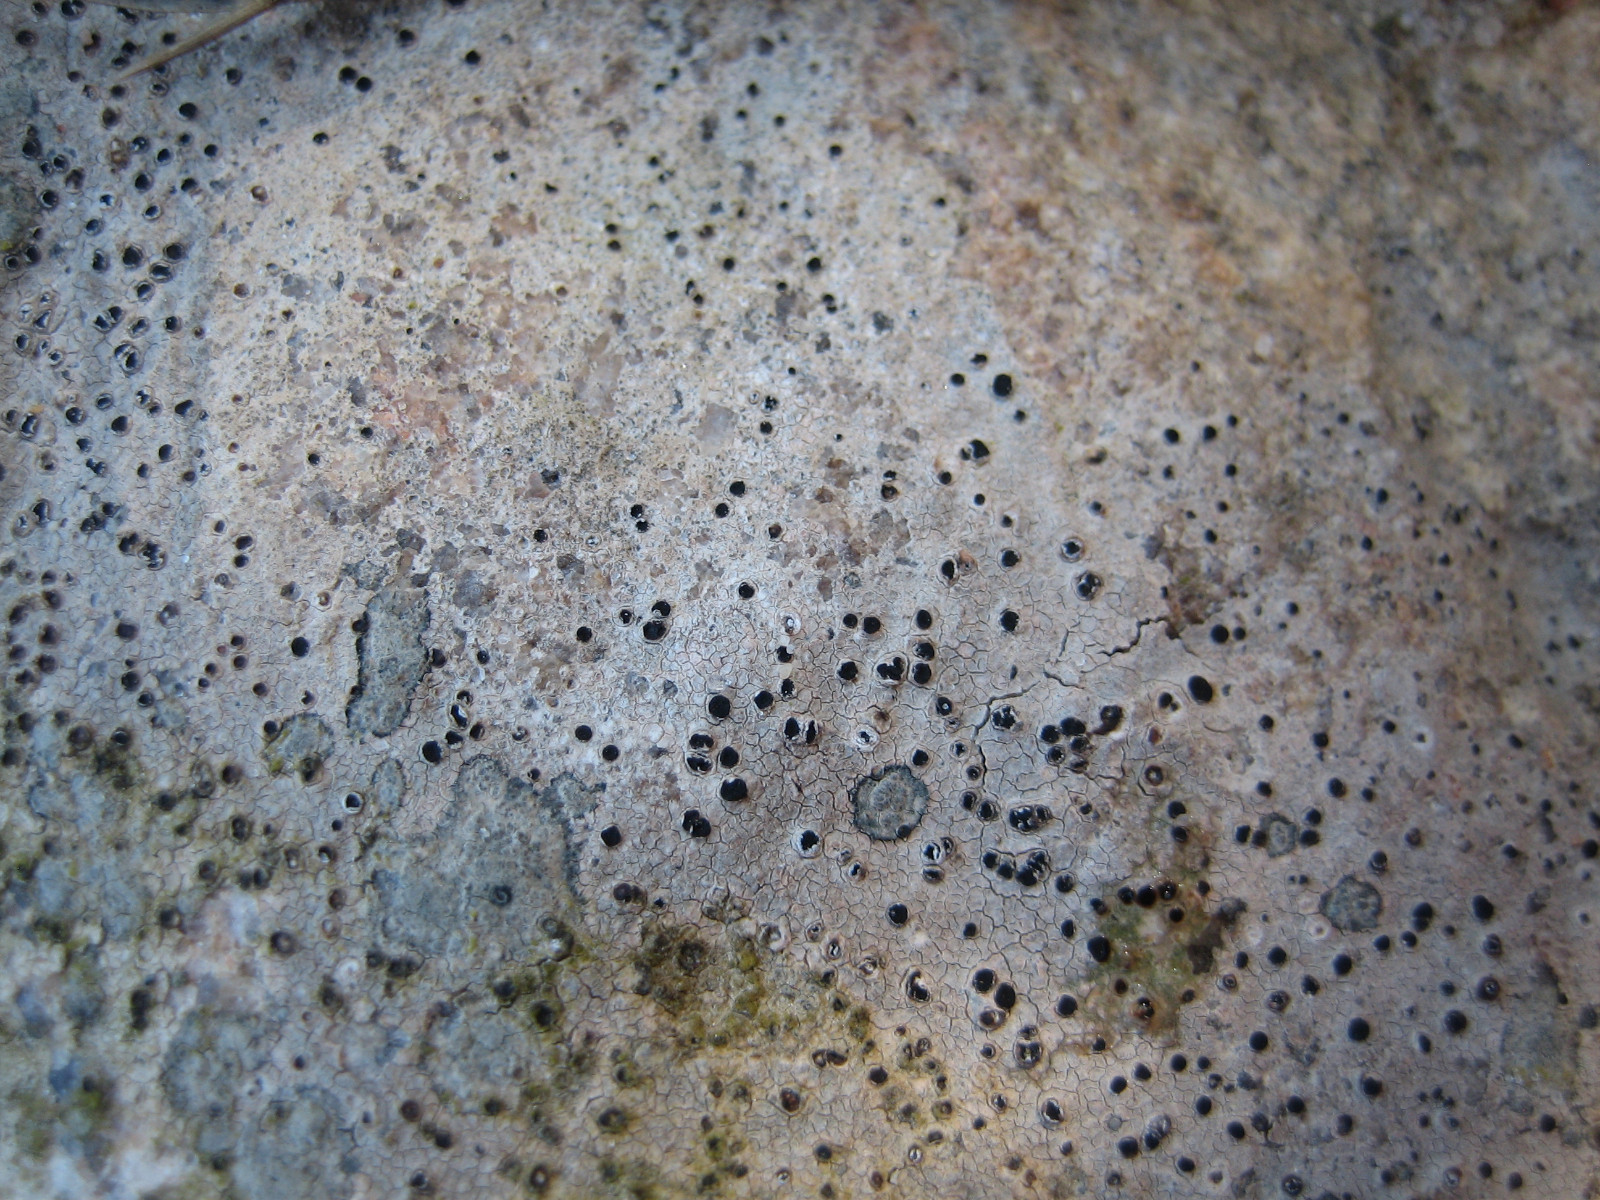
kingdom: Fungi
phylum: Ascomycota
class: Lecanoromycetes
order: Baeomycetales
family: Trapeliaceae
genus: Trapelia
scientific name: Trapelia coarctata
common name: hvidrandet brunskivelav
